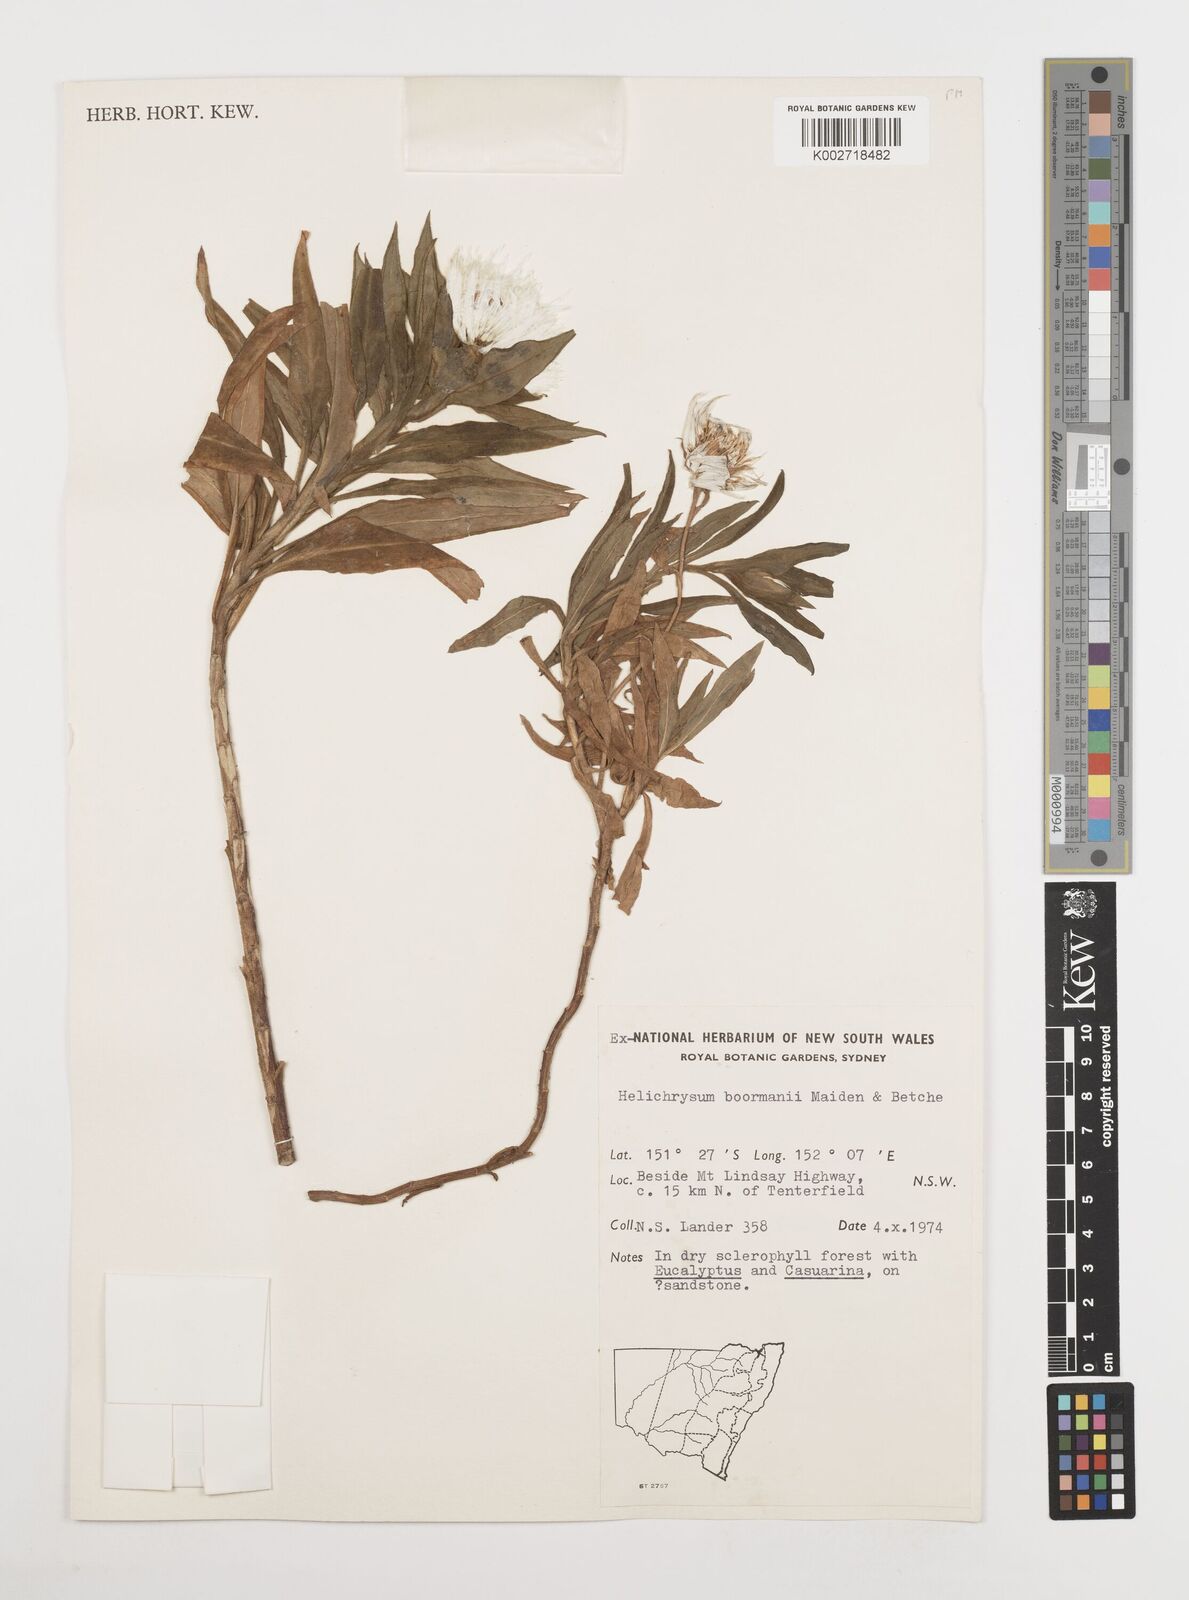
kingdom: Plantae
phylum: Tracheophyta
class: Magnoliopsida
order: Asterales
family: Asteraceae
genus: Leucozoma
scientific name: Leucozoma boormanii
